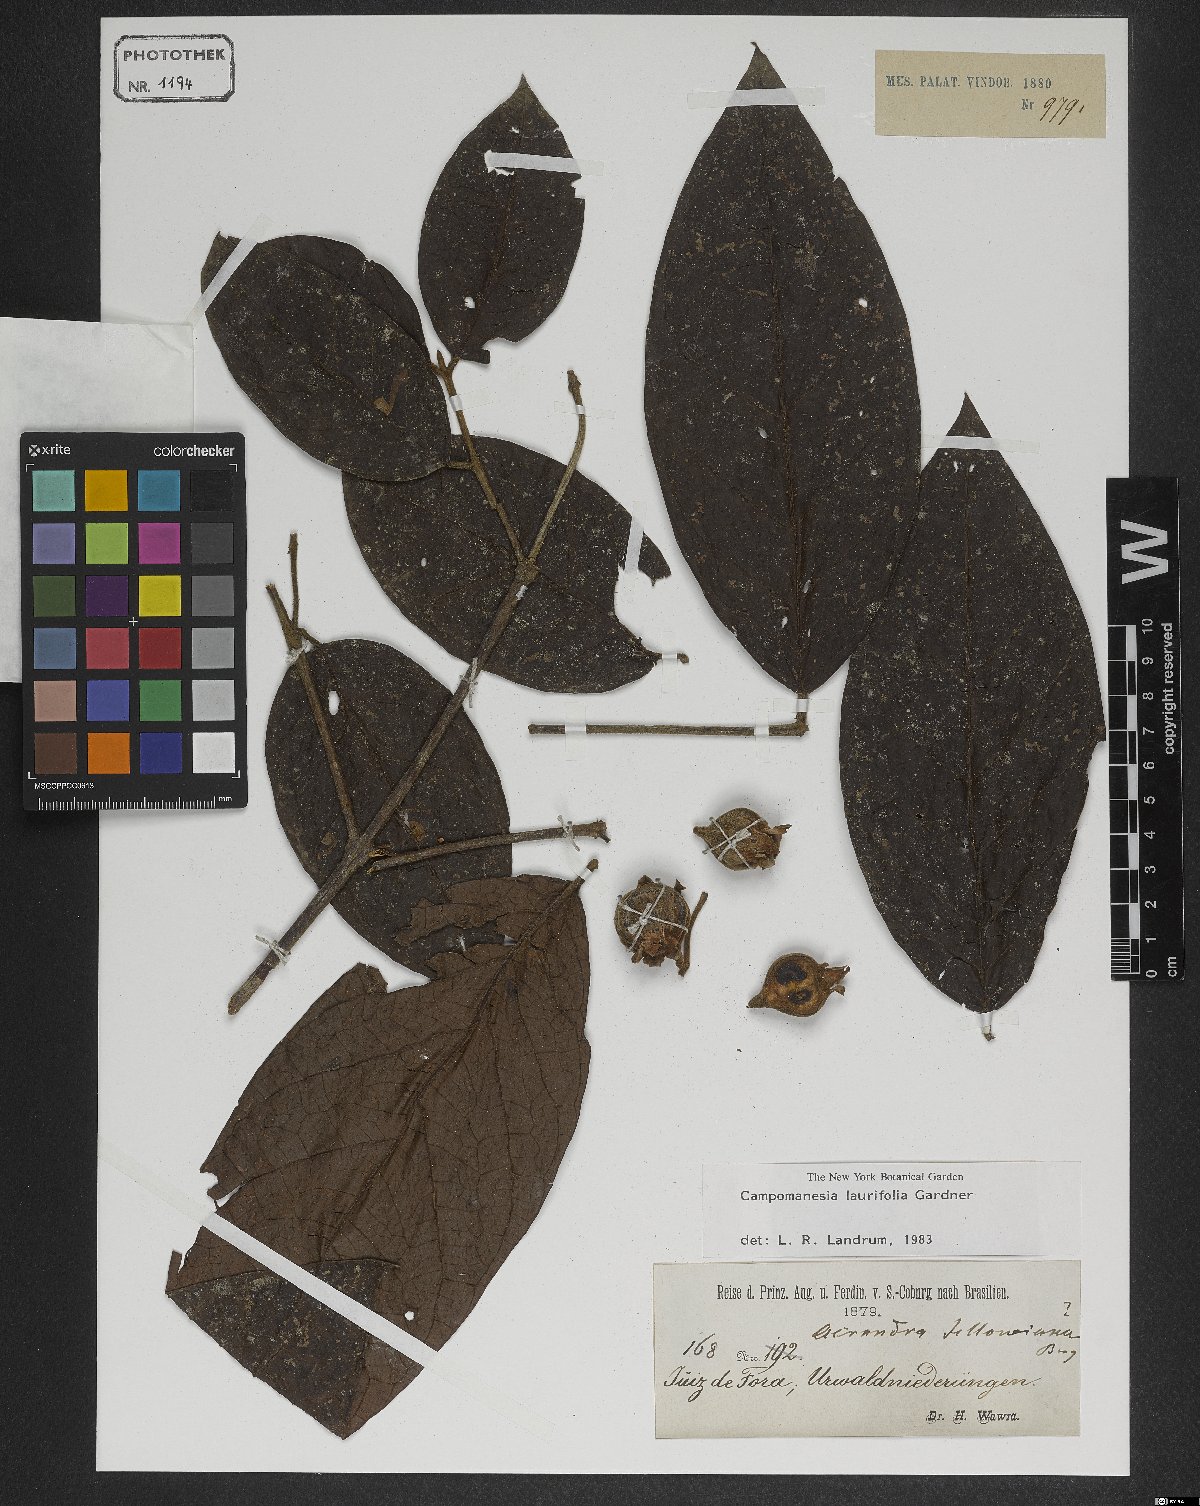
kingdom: Plantae
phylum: Tracheophyta
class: Magnoliopsida
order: Myrtales
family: Myrtaceae
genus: Campomanesia
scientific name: Campomanesia laurifolia
